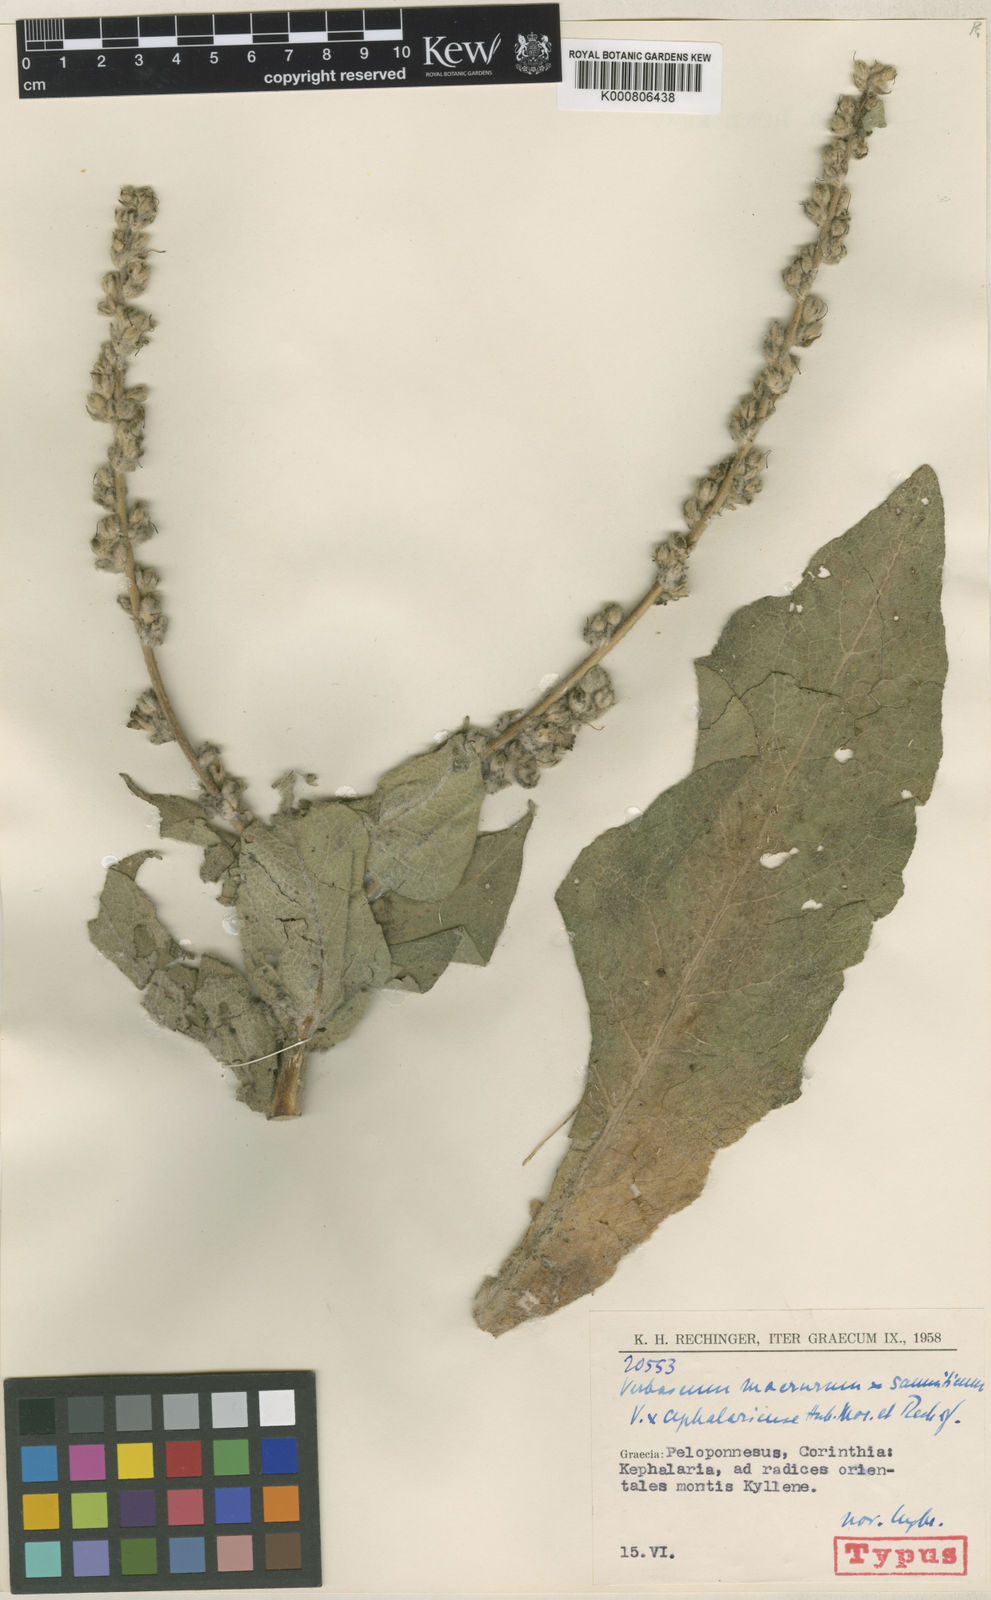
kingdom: Plantae
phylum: Tracheophyta
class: Magnoliopsida
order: Lamiales
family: Scrophulariaceae
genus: Verbascum
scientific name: Verbascum cephalariense
